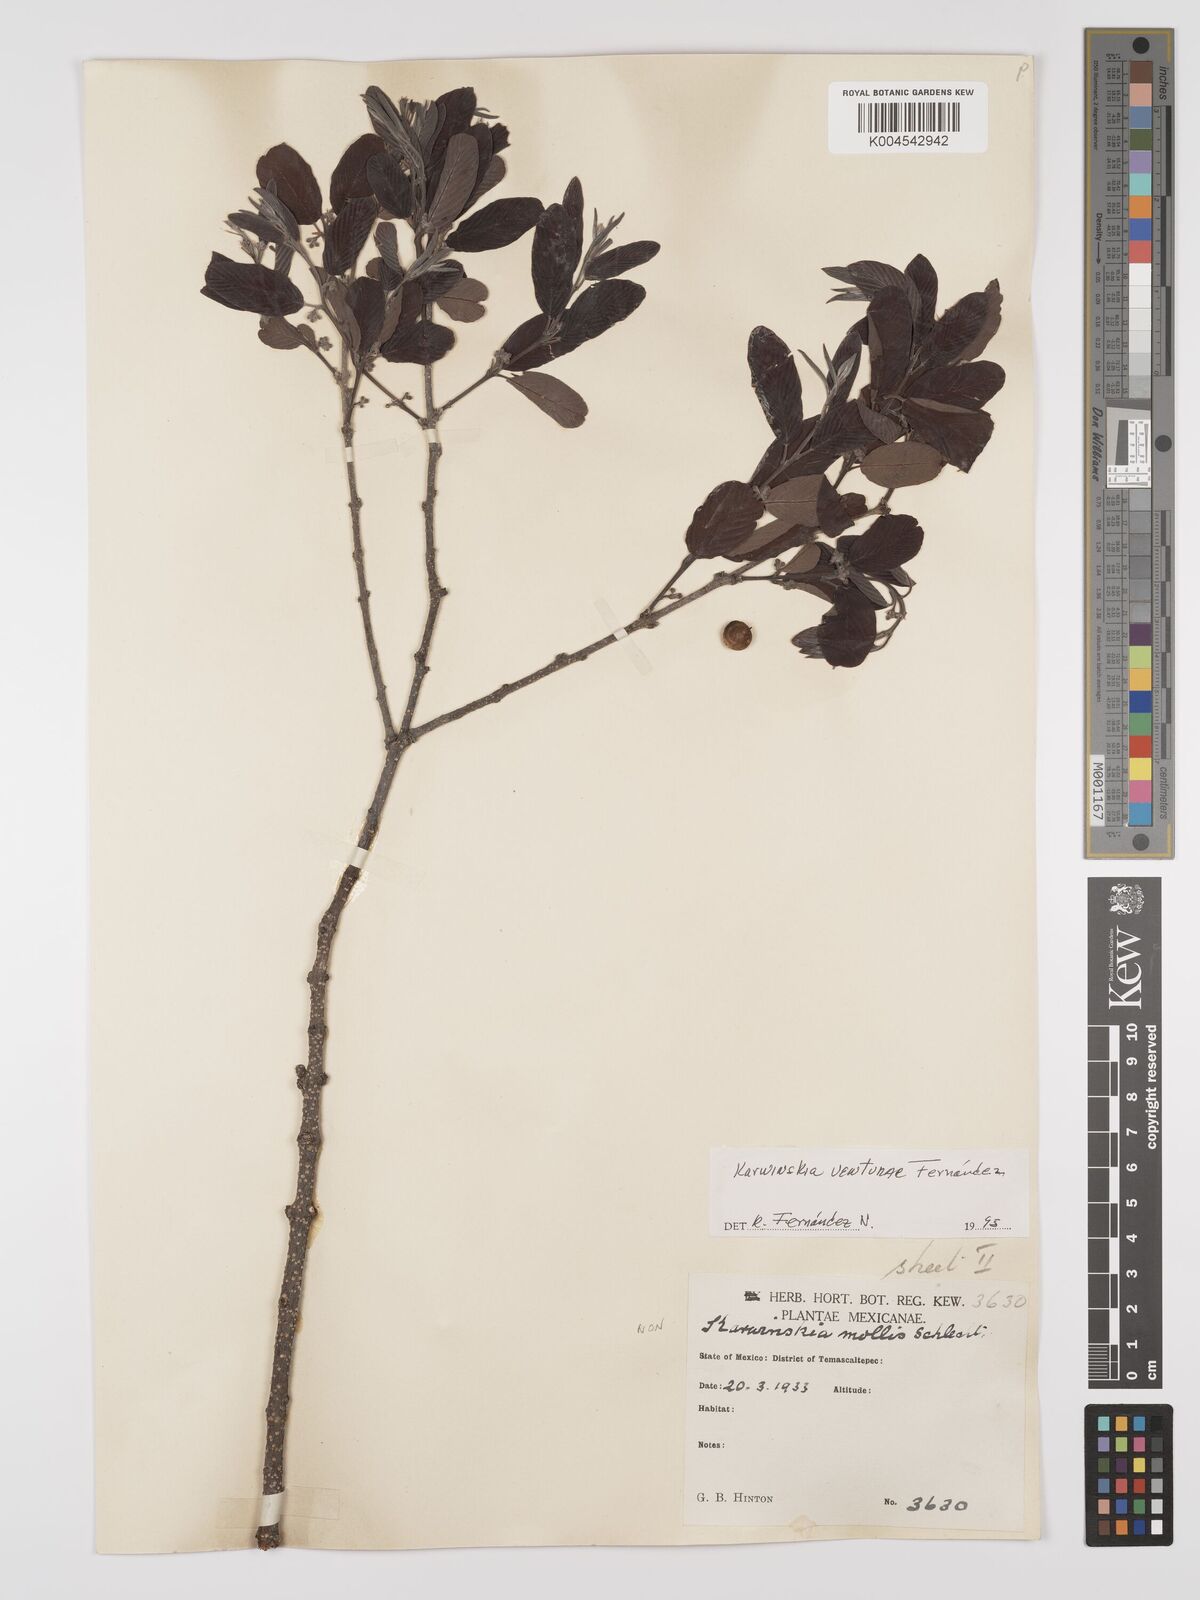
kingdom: Plantae
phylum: Tracheophyta
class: Magnoliopsida
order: Rosales
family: Rhamnaceae
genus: Karwinskia
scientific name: Karwinskia venturae
